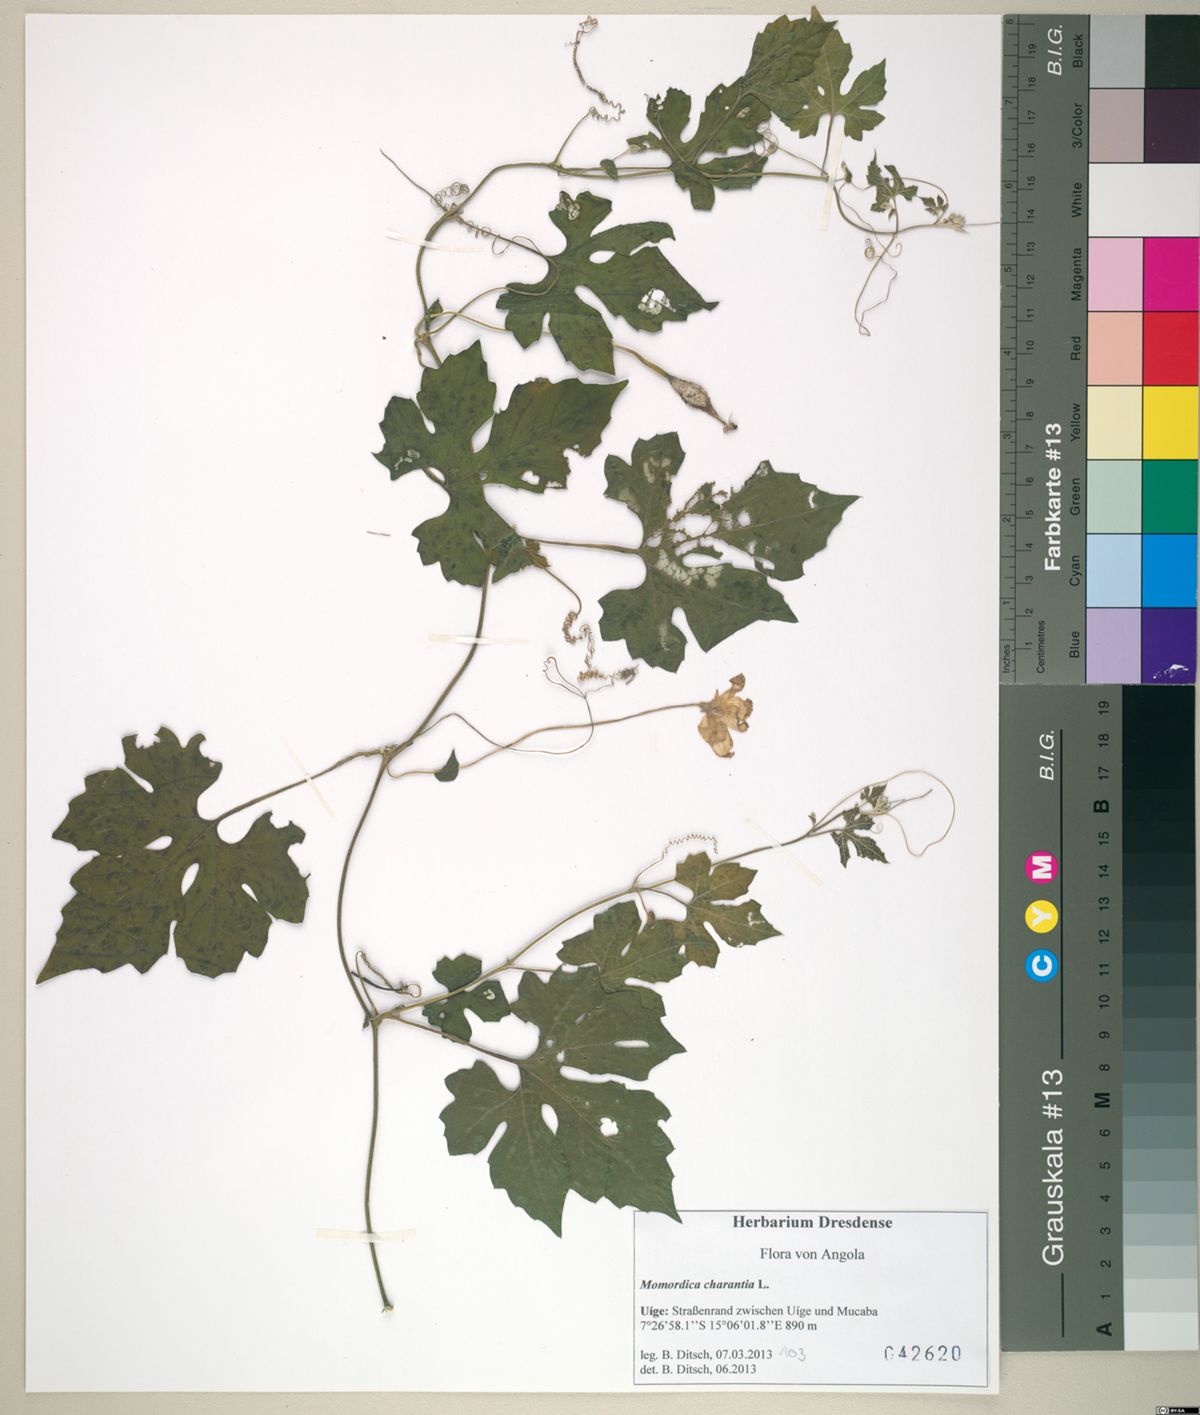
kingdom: Plantae
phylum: Tracheophyta
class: Magnoliopsida
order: Cucurbitales
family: Cucurbitaceae
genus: Momordica
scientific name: Momordica charantia
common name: Balsampear
